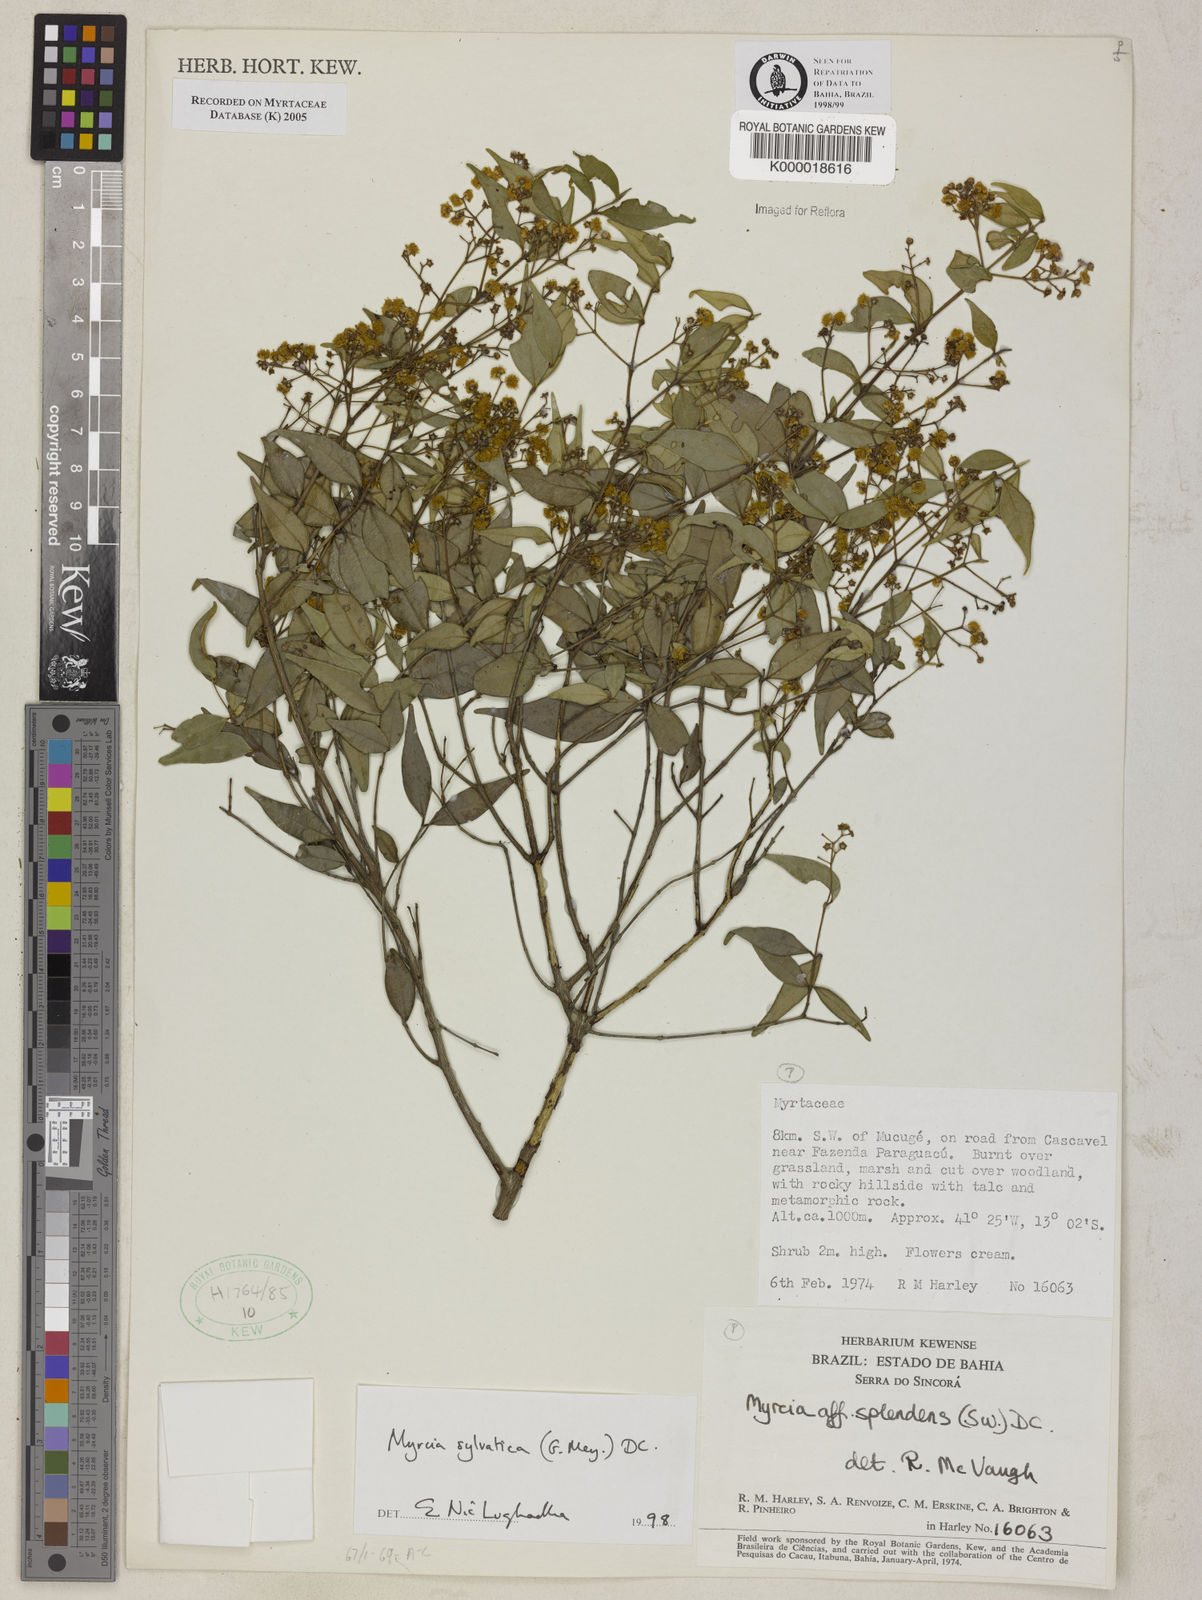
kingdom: Plantae
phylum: Tracheophyta
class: Magnoliopsida
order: Myrtales
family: Myrtaceae
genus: Myrcia
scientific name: Myrcia sylvatica
